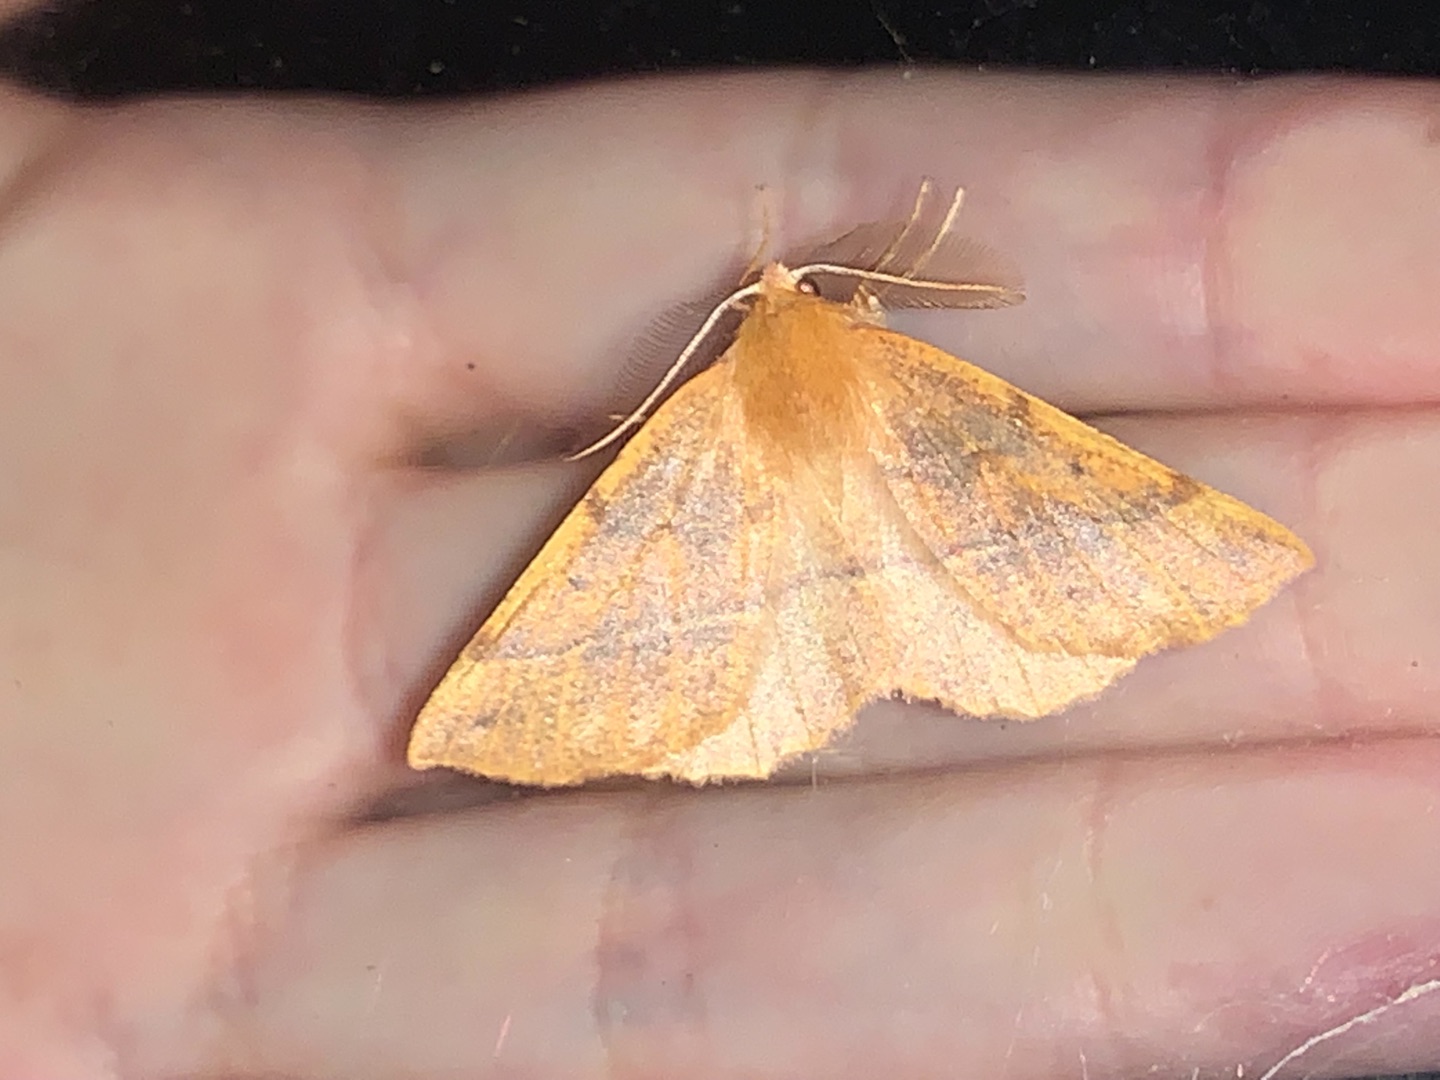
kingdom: Animalia
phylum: Arthropoda
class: Insecta
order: Lepidoptera
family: Geometridae
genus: Colotois
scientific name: Colotois pennaria
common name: Løvfaldsmåler
